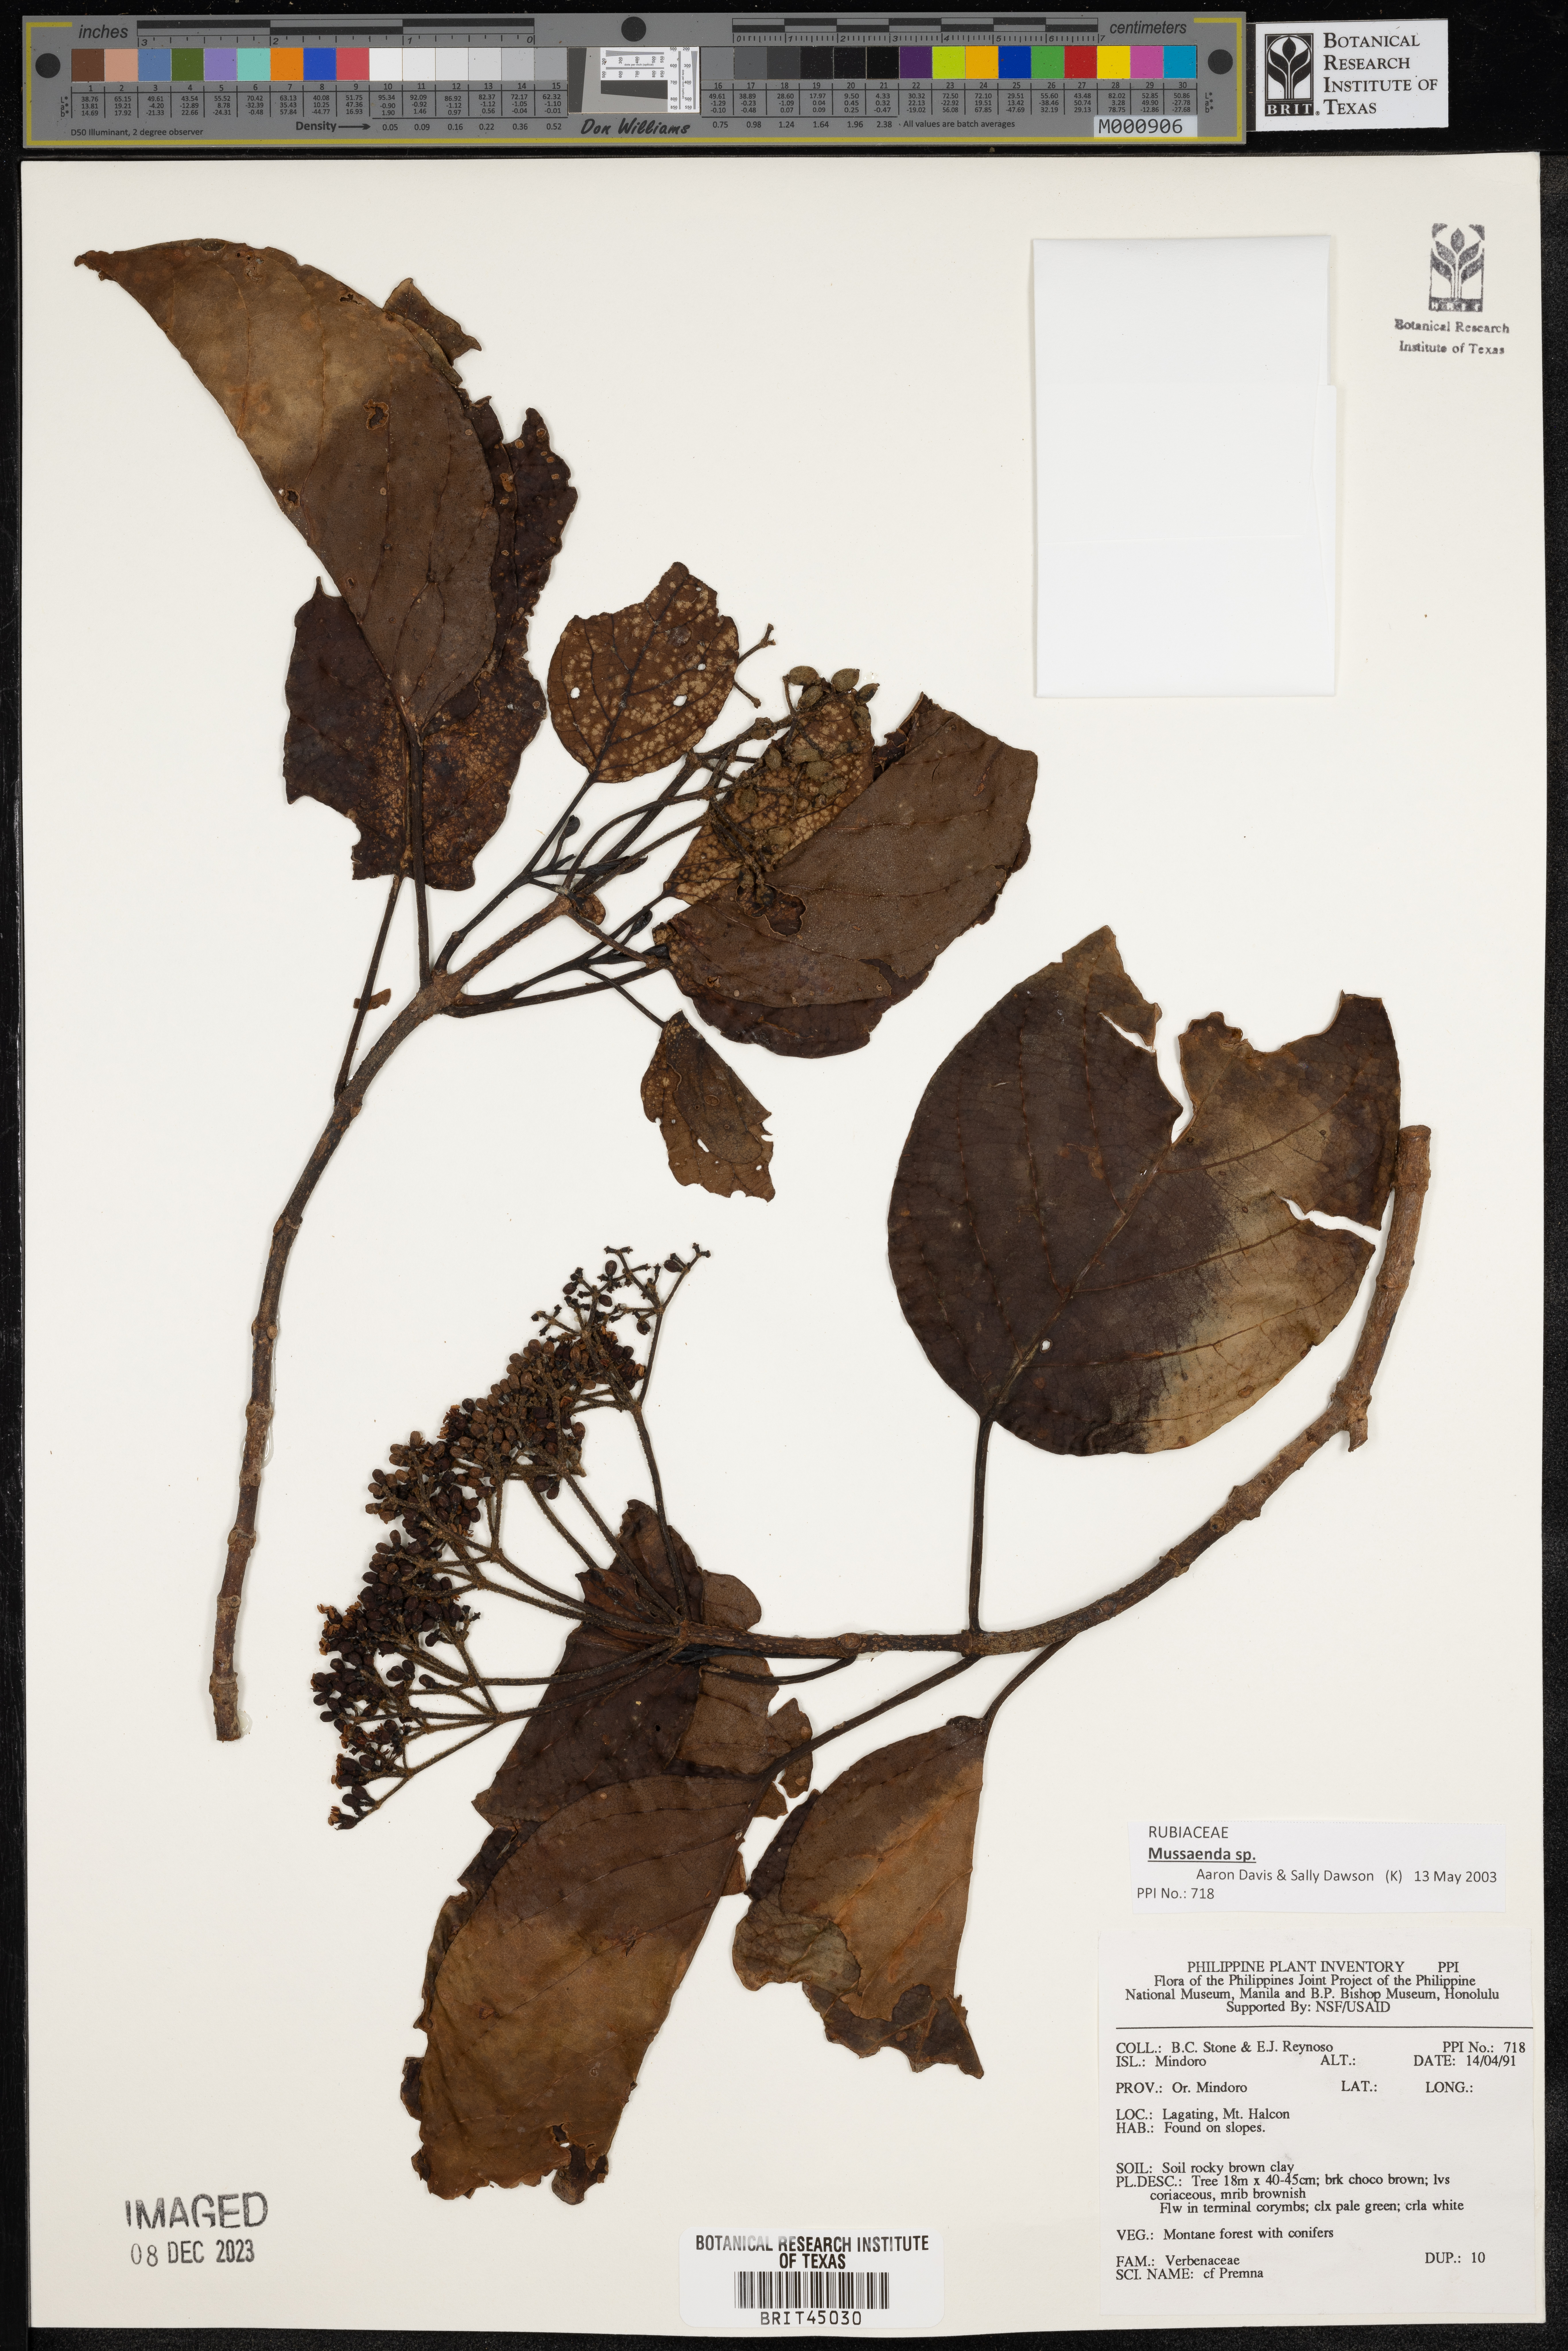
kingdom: Plantae
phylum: Tracheophyta
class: Magnoliopsida
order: Lamiales
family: Lamiaceae
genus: Premna
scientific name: Premna
